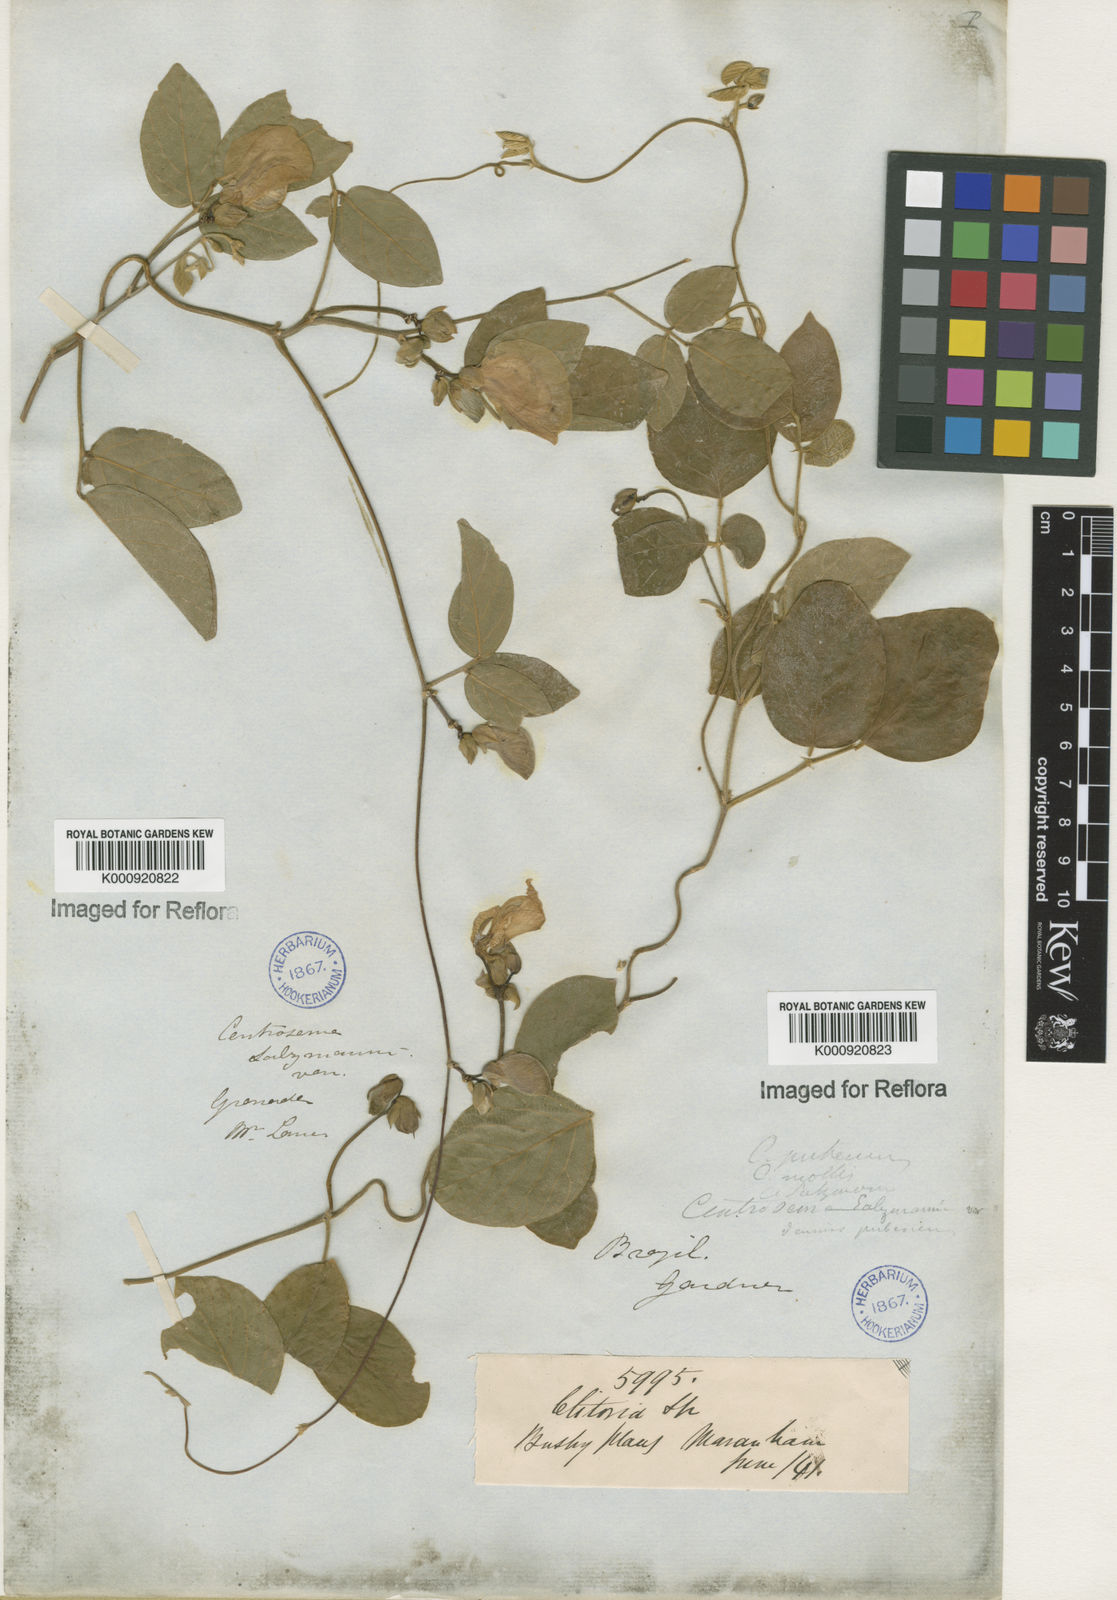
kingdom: Plantae
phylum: Tracheophyta
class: Magnoliopsida
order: Fabales
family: Fabaceae
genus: Centrosema
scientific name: Centrosema pubescens
